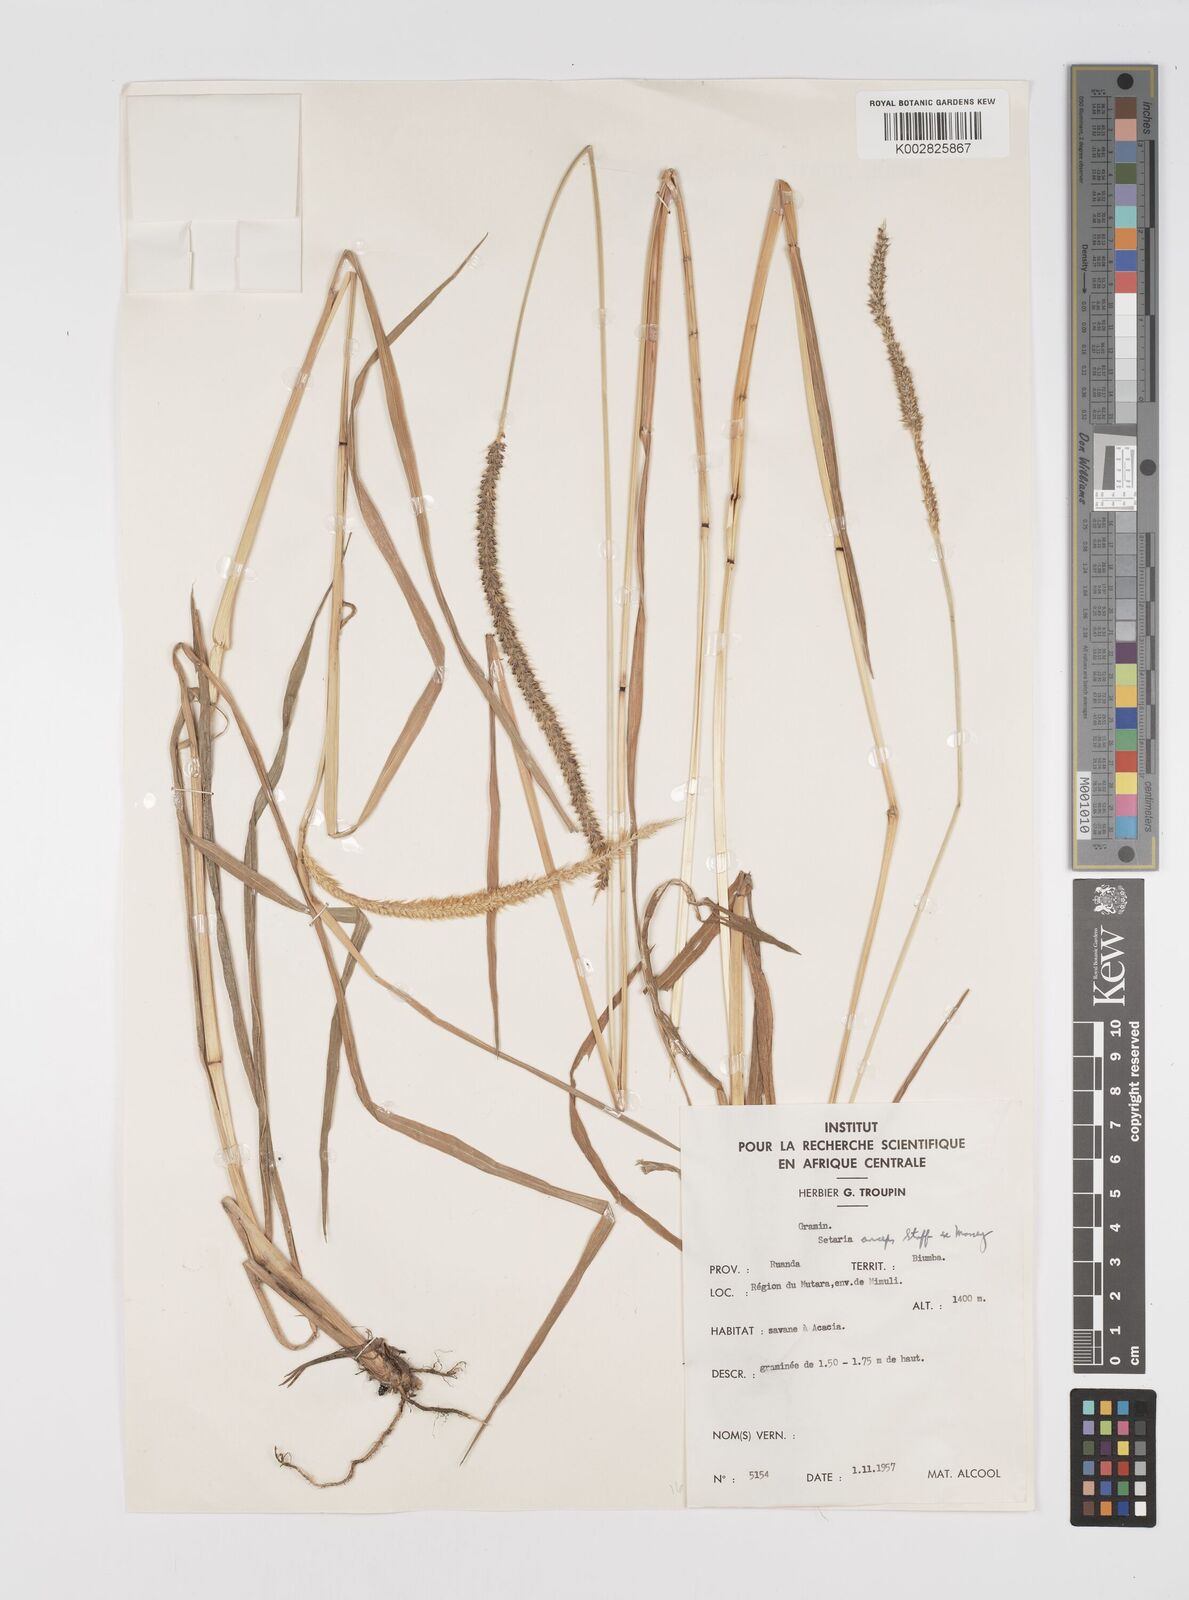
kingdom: Plantae
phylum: Tracheophyta
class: Liliopsida
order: Poales
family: Poaceae
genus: Setaria
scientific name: Setaria sphacelata
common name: African bristlegrass
